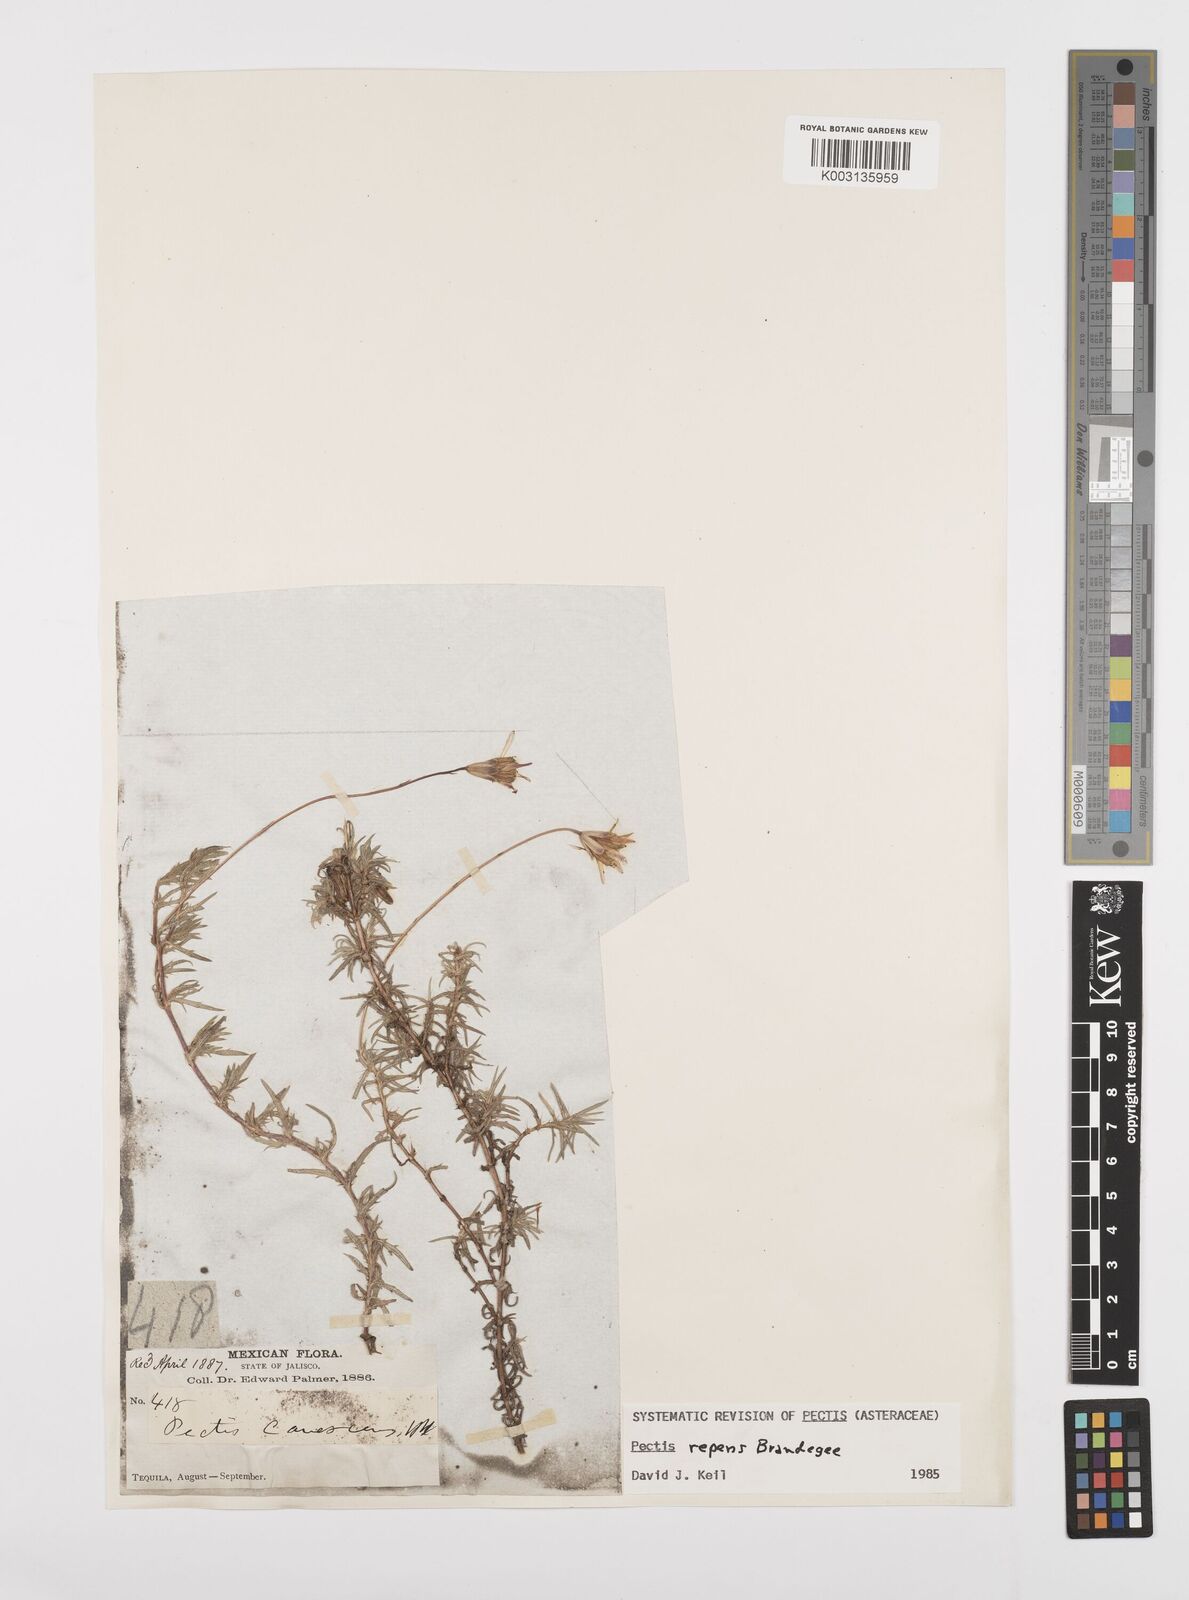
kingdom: Plantae
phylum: Tracheophyta
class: Magnoliopsida
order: Asterales
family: Asteraceae
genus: Pectis
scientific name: Pectis canescens
